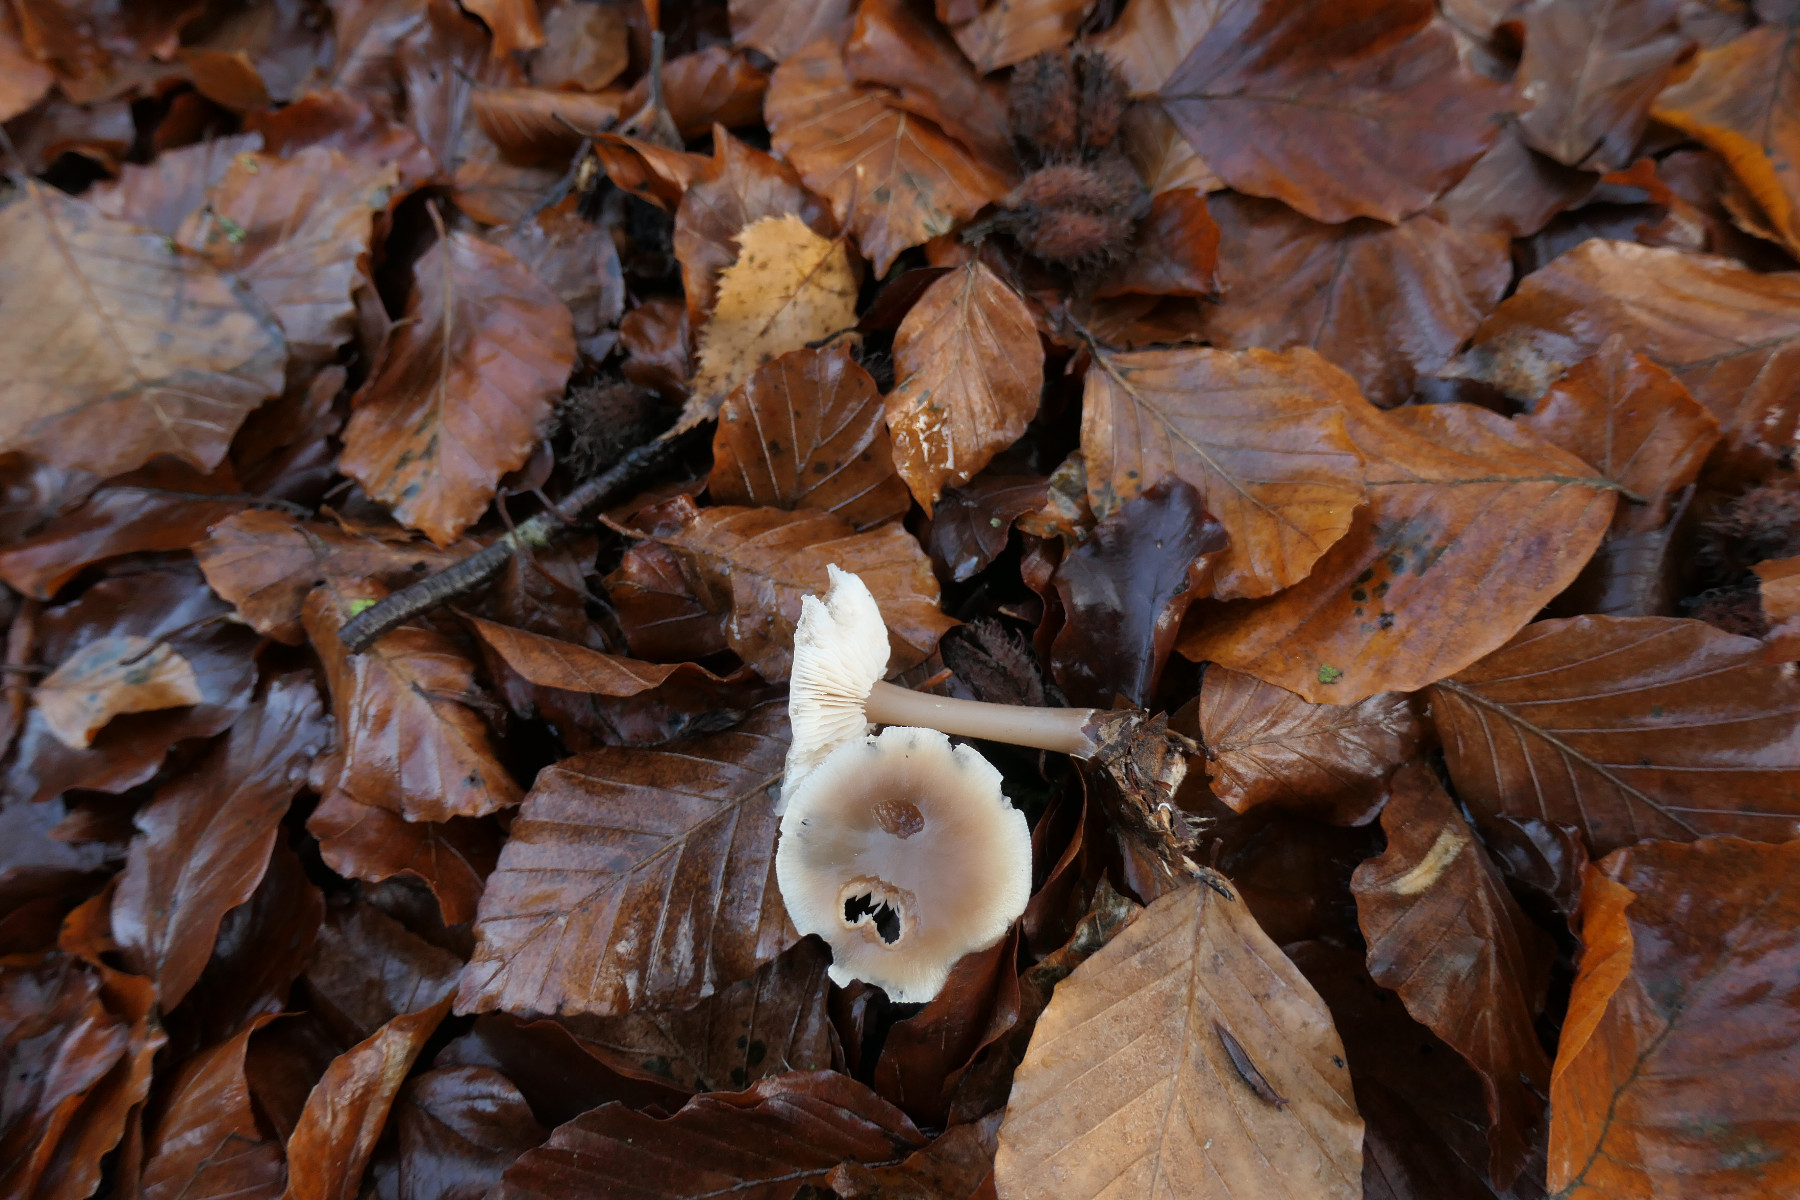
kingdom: Fungi
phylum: Basidiomycota
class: Agaricomycetes
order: Agaricales
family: Omphalotaceae
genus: Rhodocollybia
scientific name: Rhodocollybia asema
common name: horngrå fladhat
